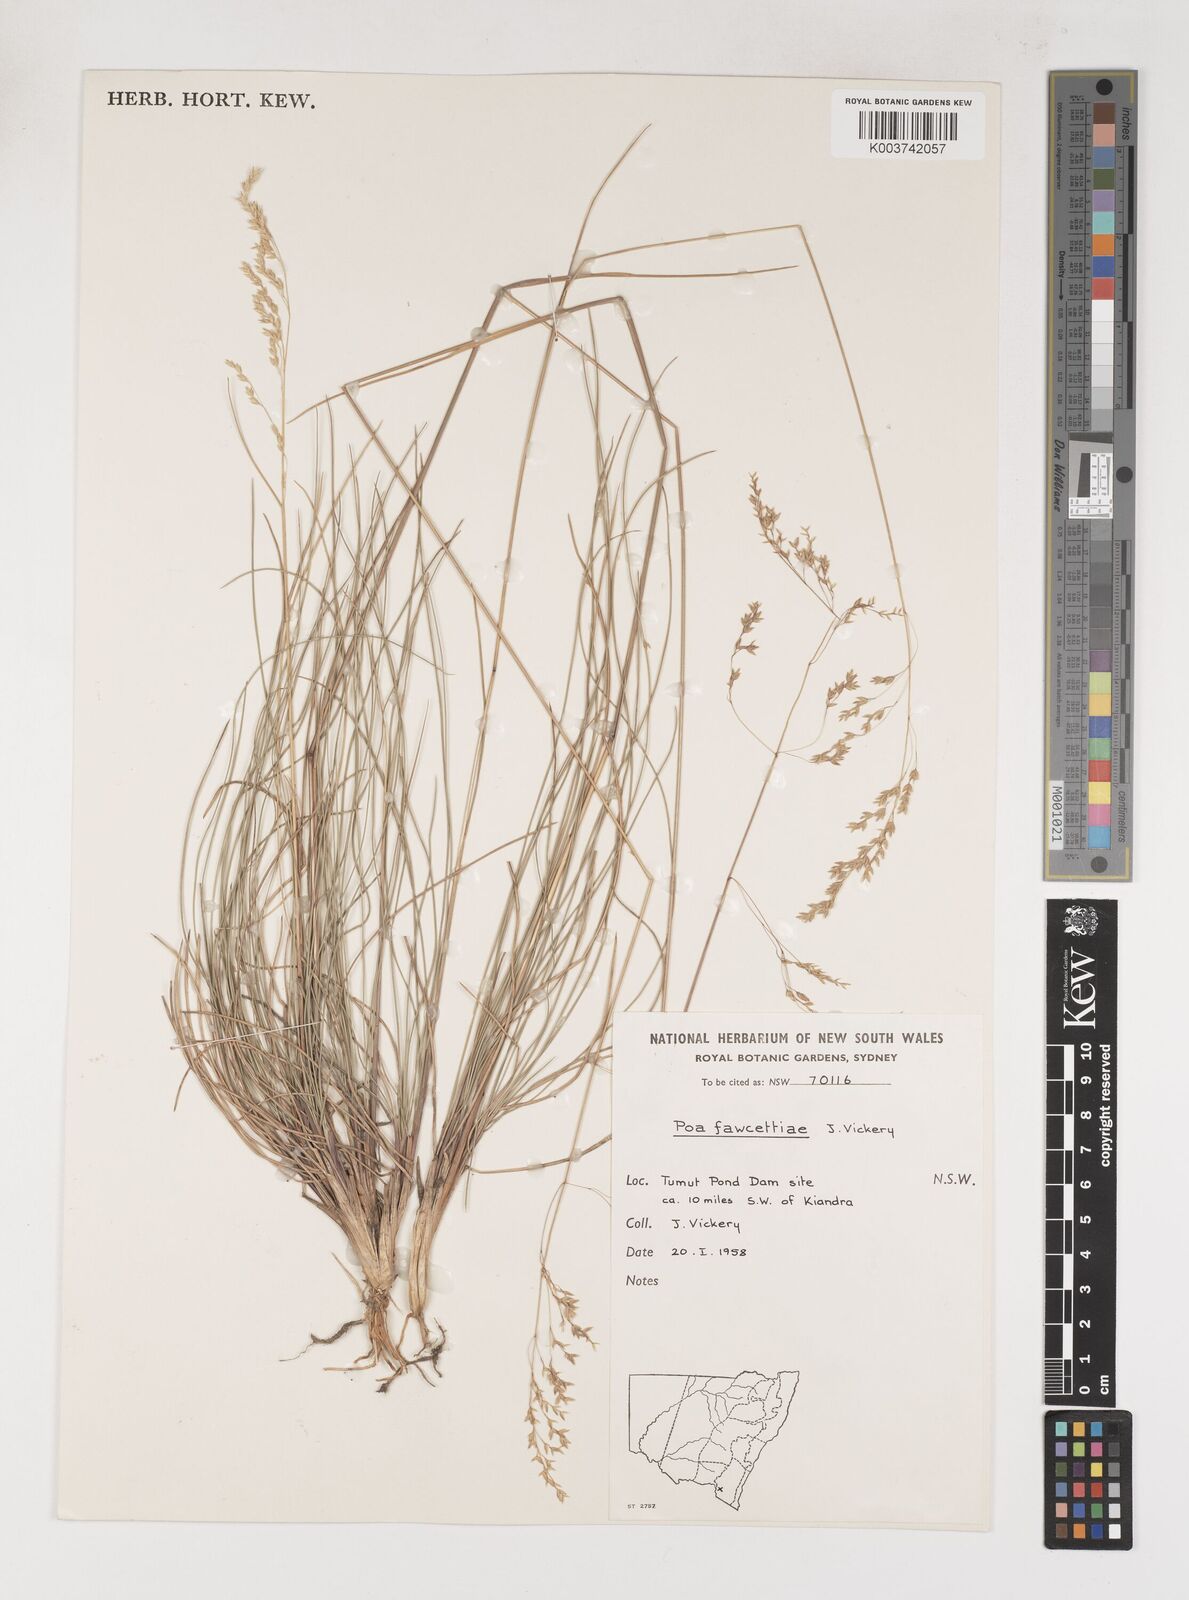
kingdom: Plantae
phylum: Tracheophyta
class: Liliopsida
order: Poales
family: Poaceae
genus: Poa
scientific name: Poa fawcettiae
